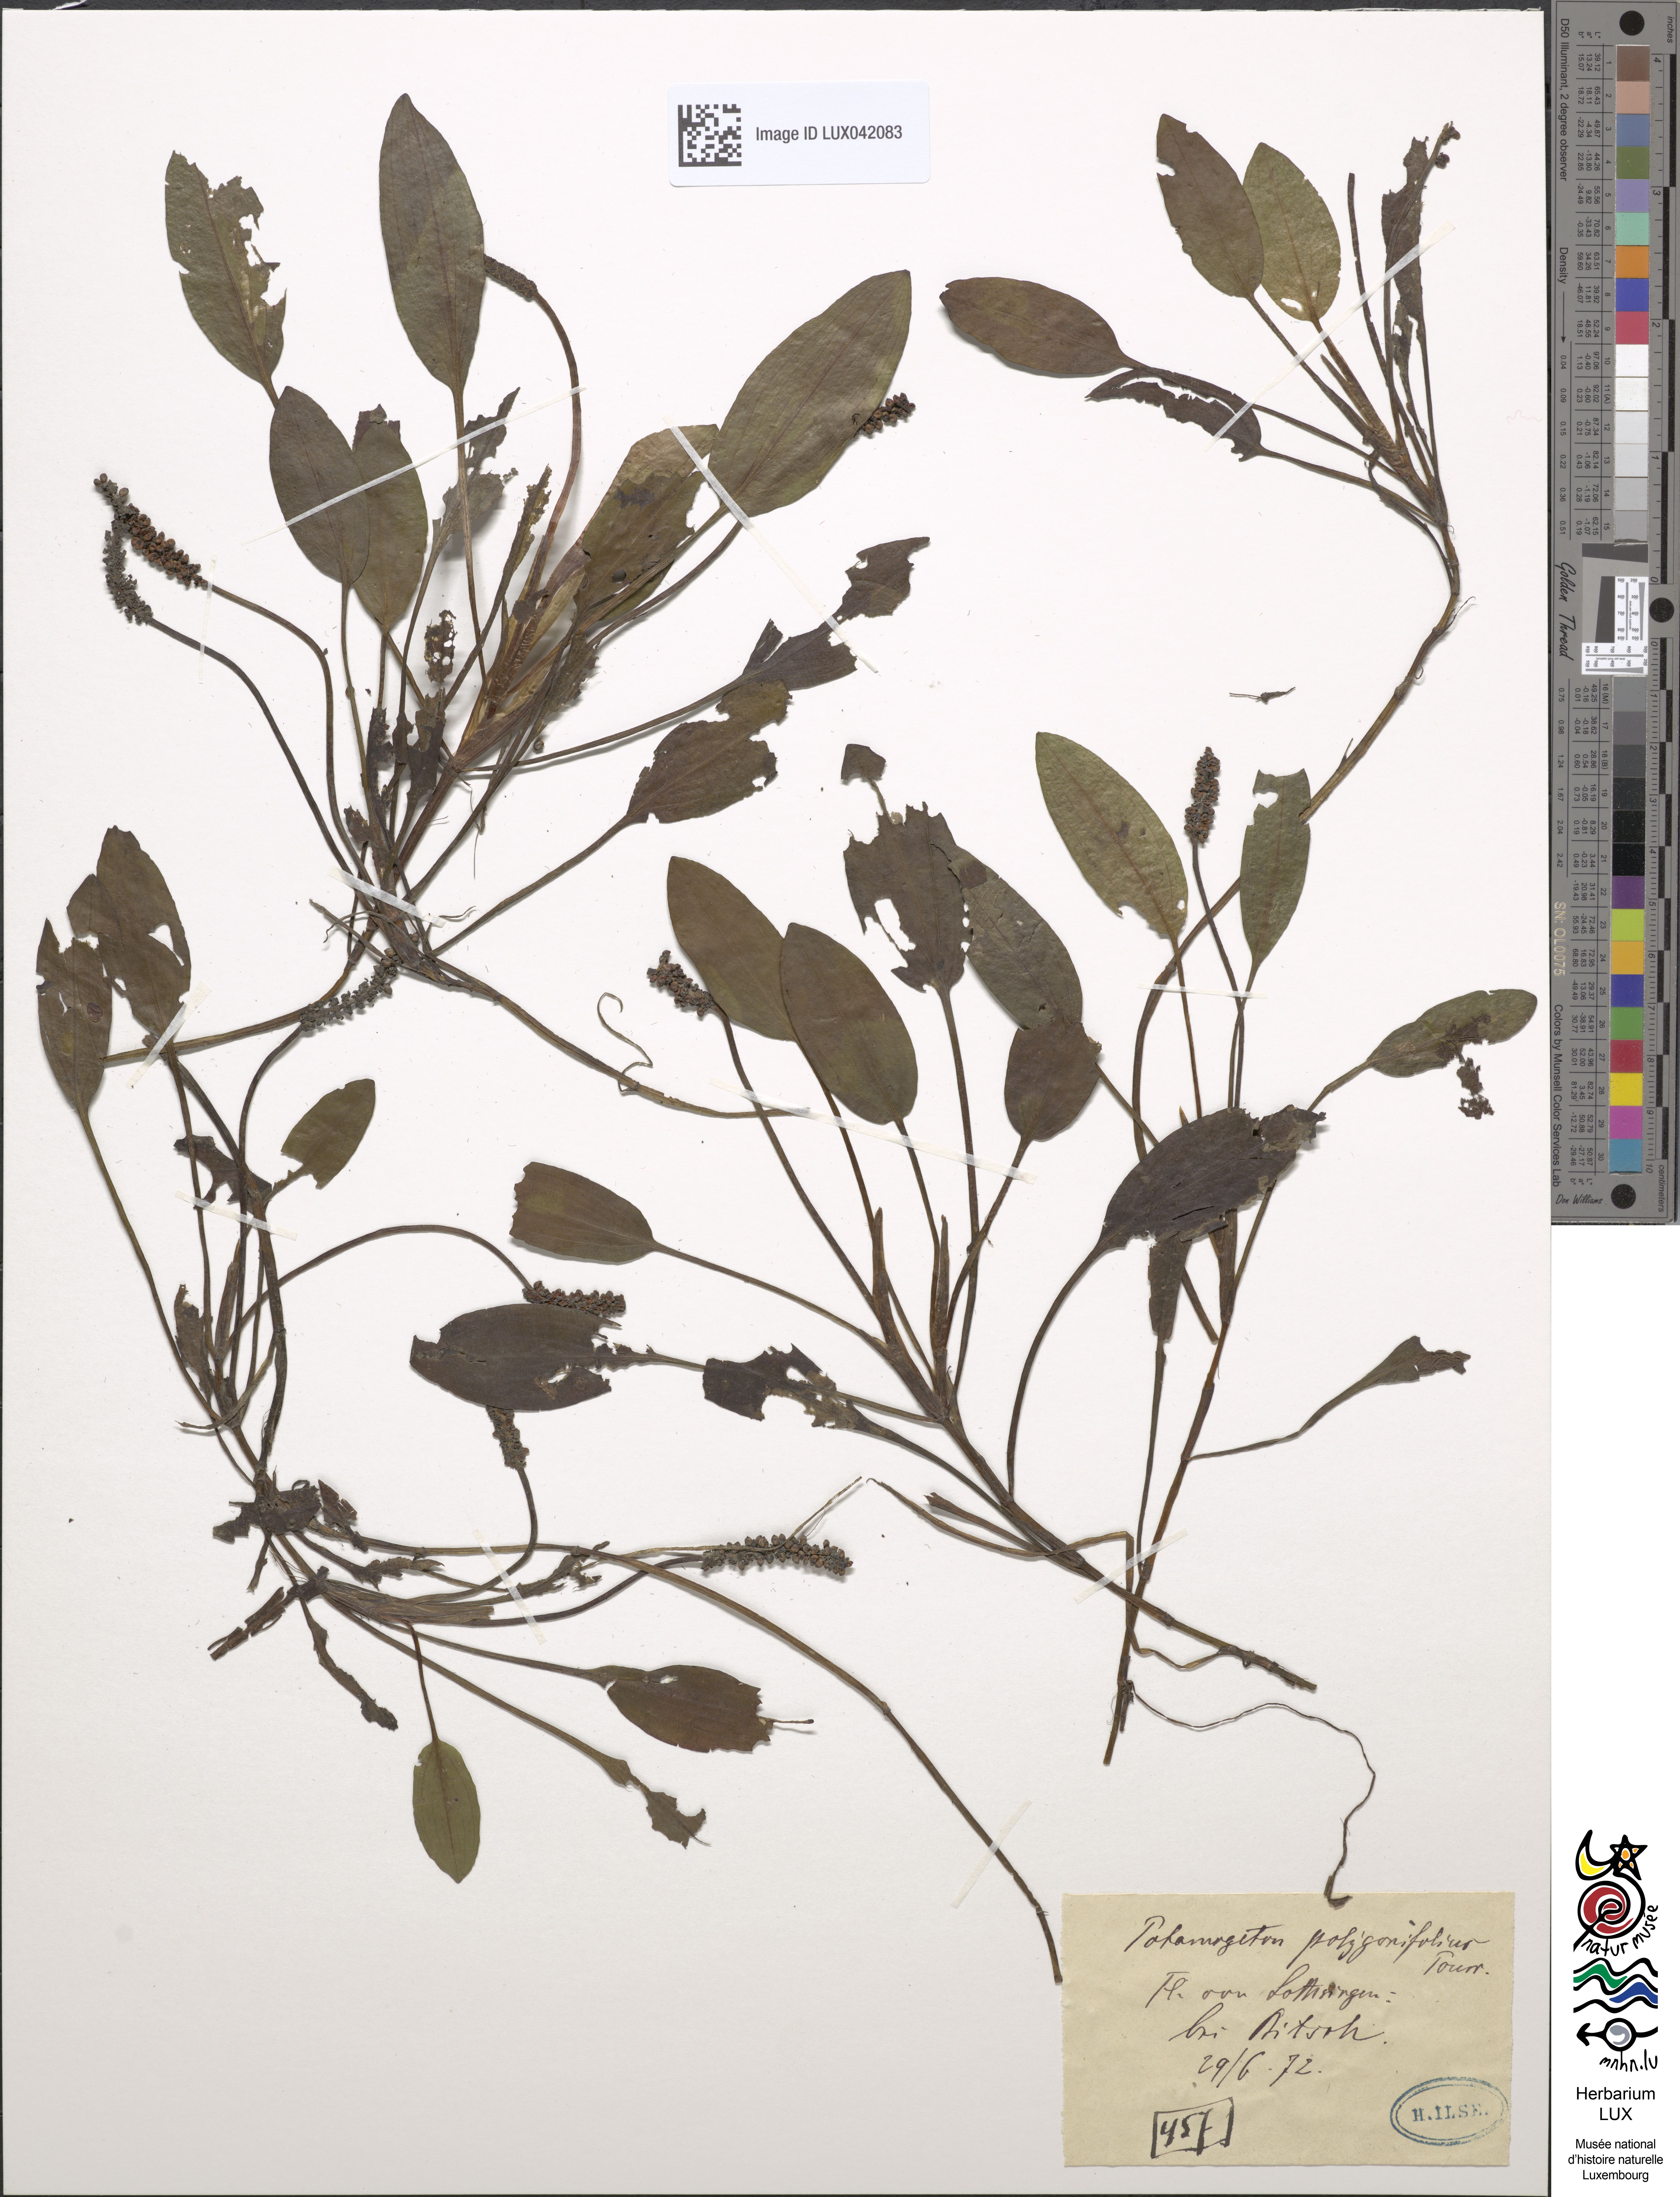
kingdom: Plantae
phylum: Tracheophyta
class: Liliopsida
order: Alismatales
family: Potamogetonaceae
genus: Potamogeton
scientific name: Potamogeton polygonifolius
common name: Bog pondweed
